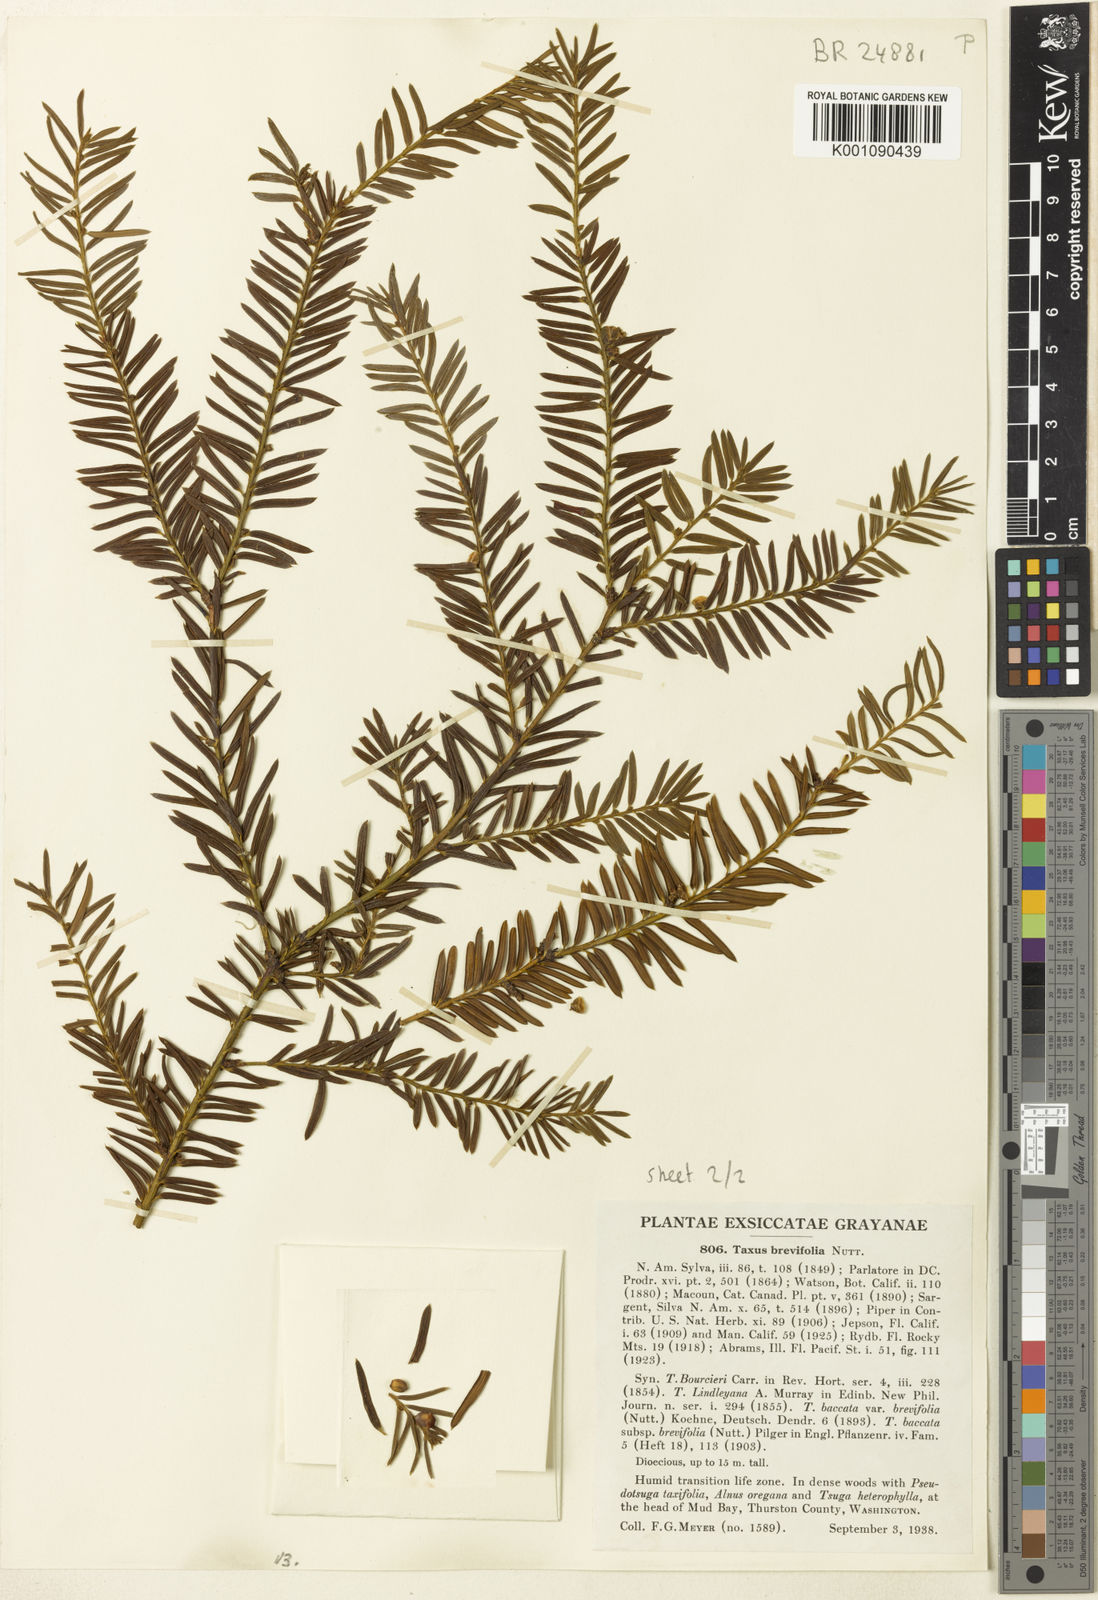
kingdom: Plantae
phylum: Tracheophyta
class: Pinopsida
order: Pinales
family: Taxaceae
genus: Taxus
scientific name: Taxus brevifolia
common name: Pacific yew
